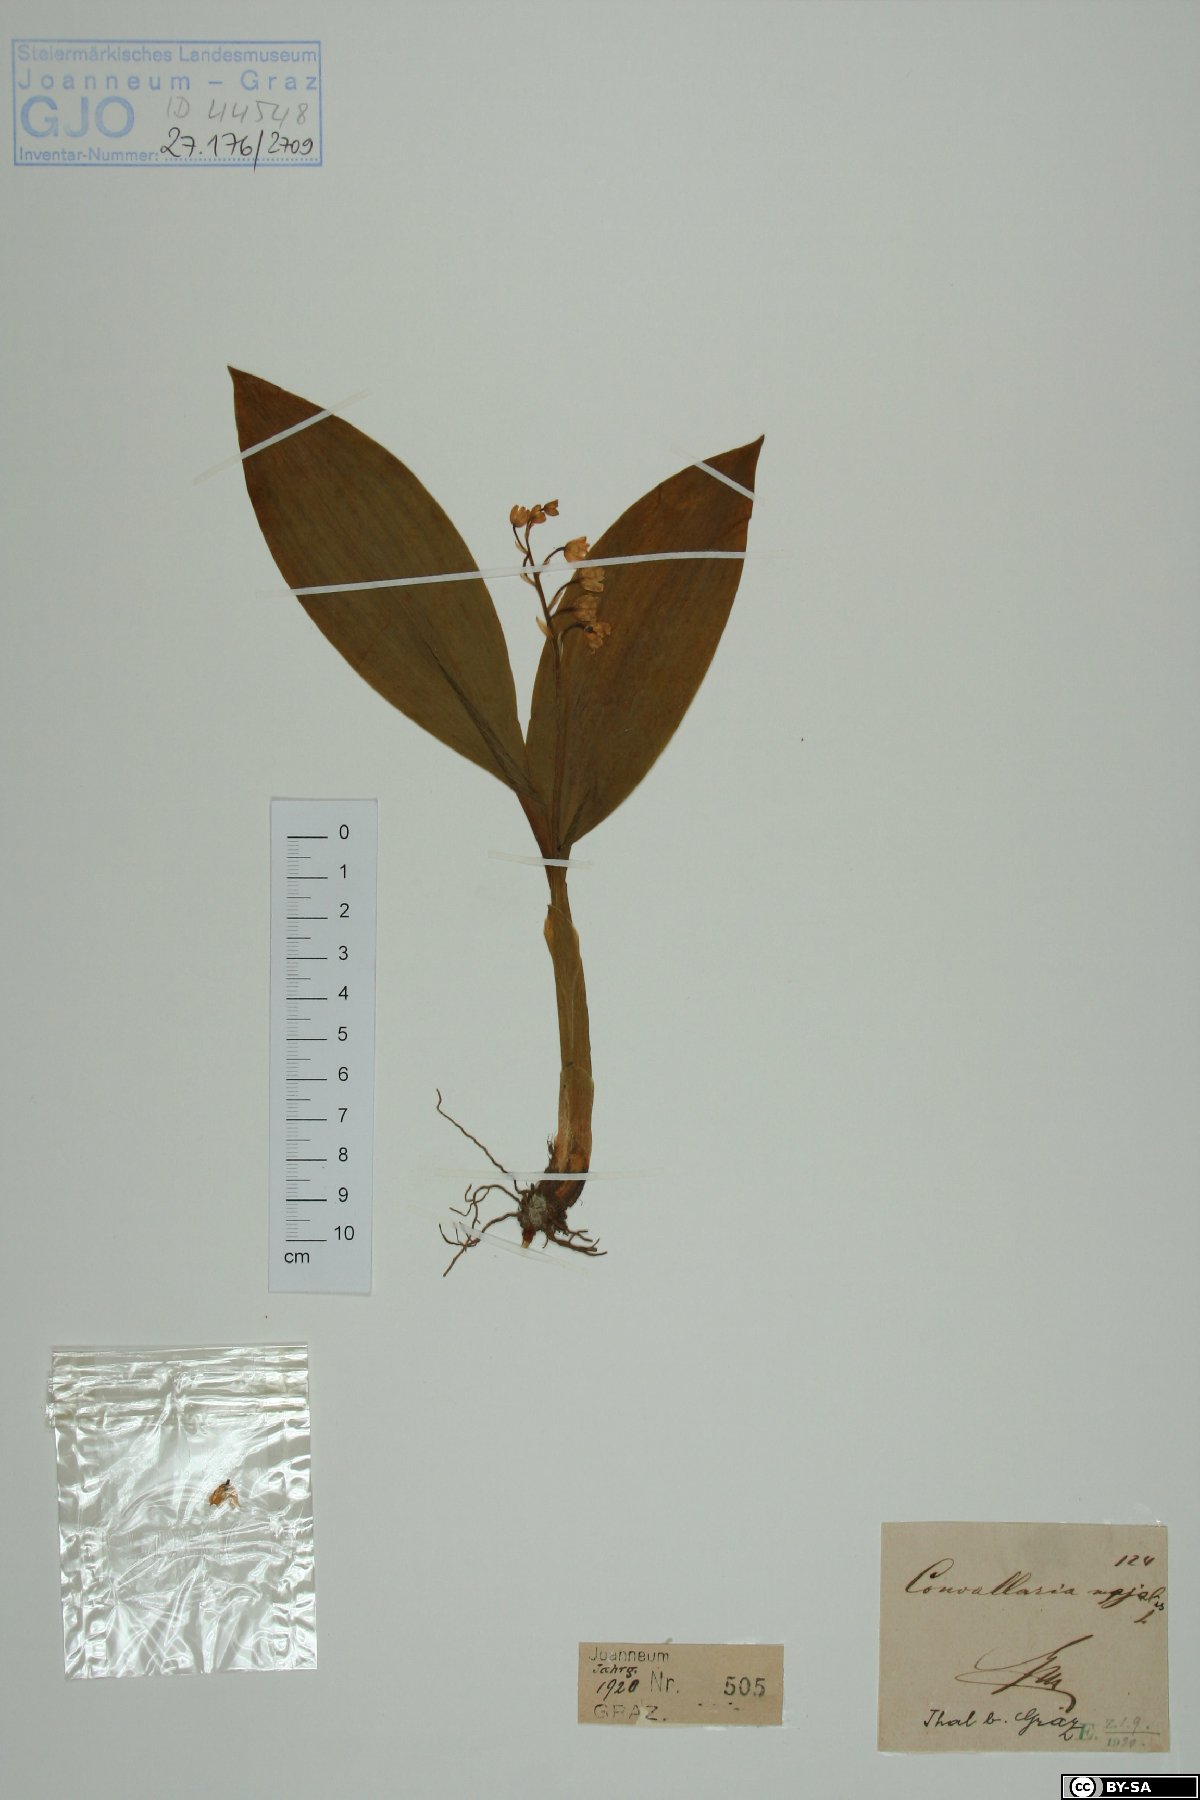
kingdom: Plantae
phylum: Tracheophyta
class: Liliopsida
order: Asparagales
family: Asparagaceae
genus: Convallaria
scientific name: Convallaria majalis
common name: Lily-of-the-valley
